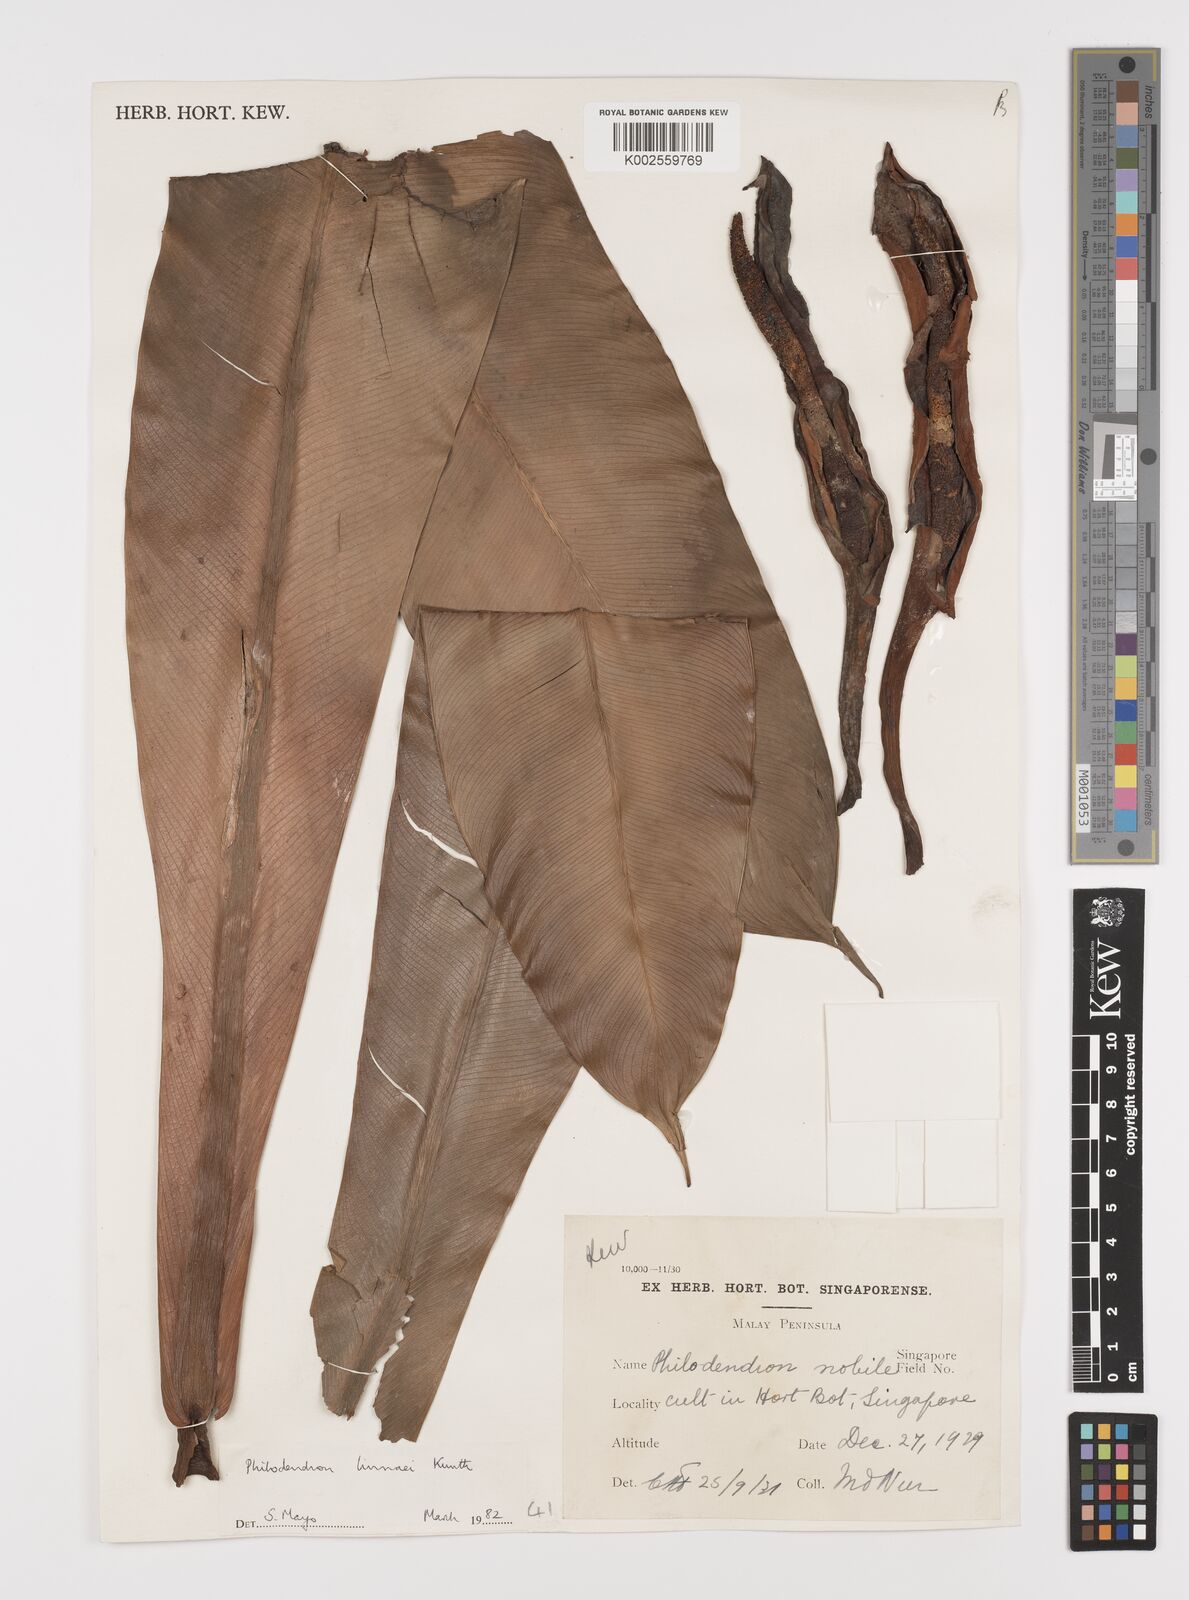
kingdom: Plantae
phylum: Tracheophyta
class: Liliopsida
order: Alismatales
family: Araceae
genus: Philodendron
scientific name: Philodendron linnaei
